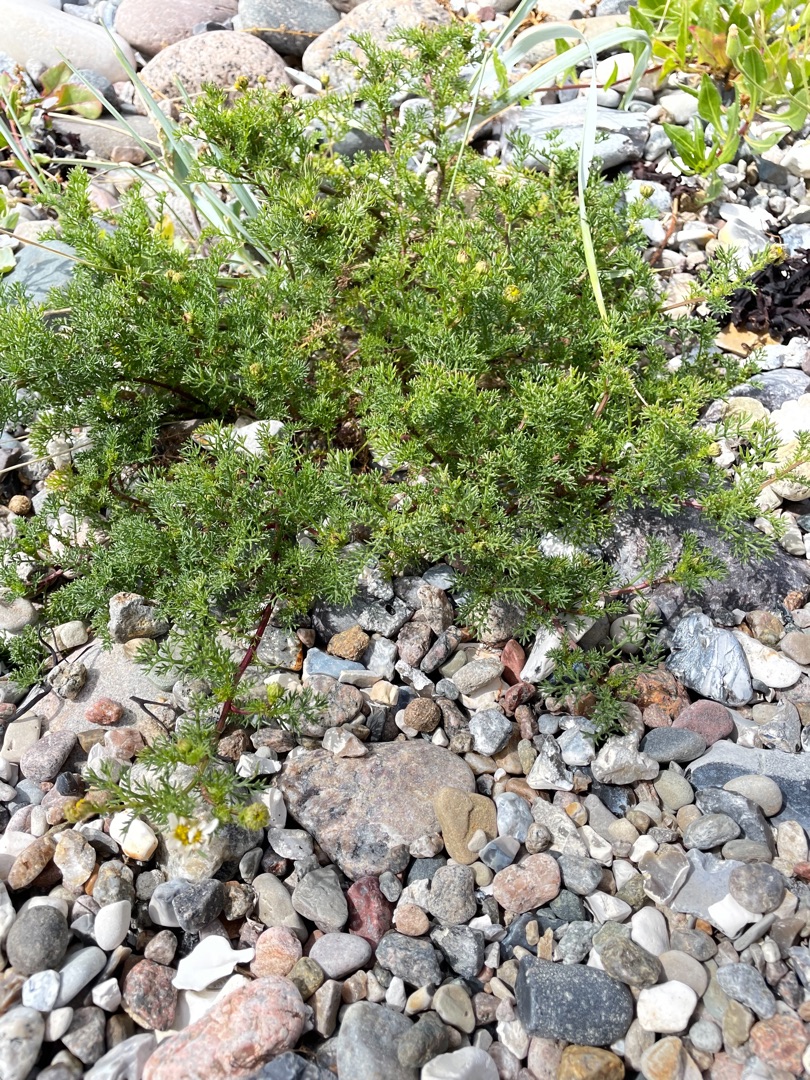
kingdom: Plantae
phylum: Tracheophyta
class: Magnoliopsida
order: Asterales
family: Asteraceae
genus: Tripleurospermum
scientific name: Tripleurospermum maritimum
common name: Strand-kamille
